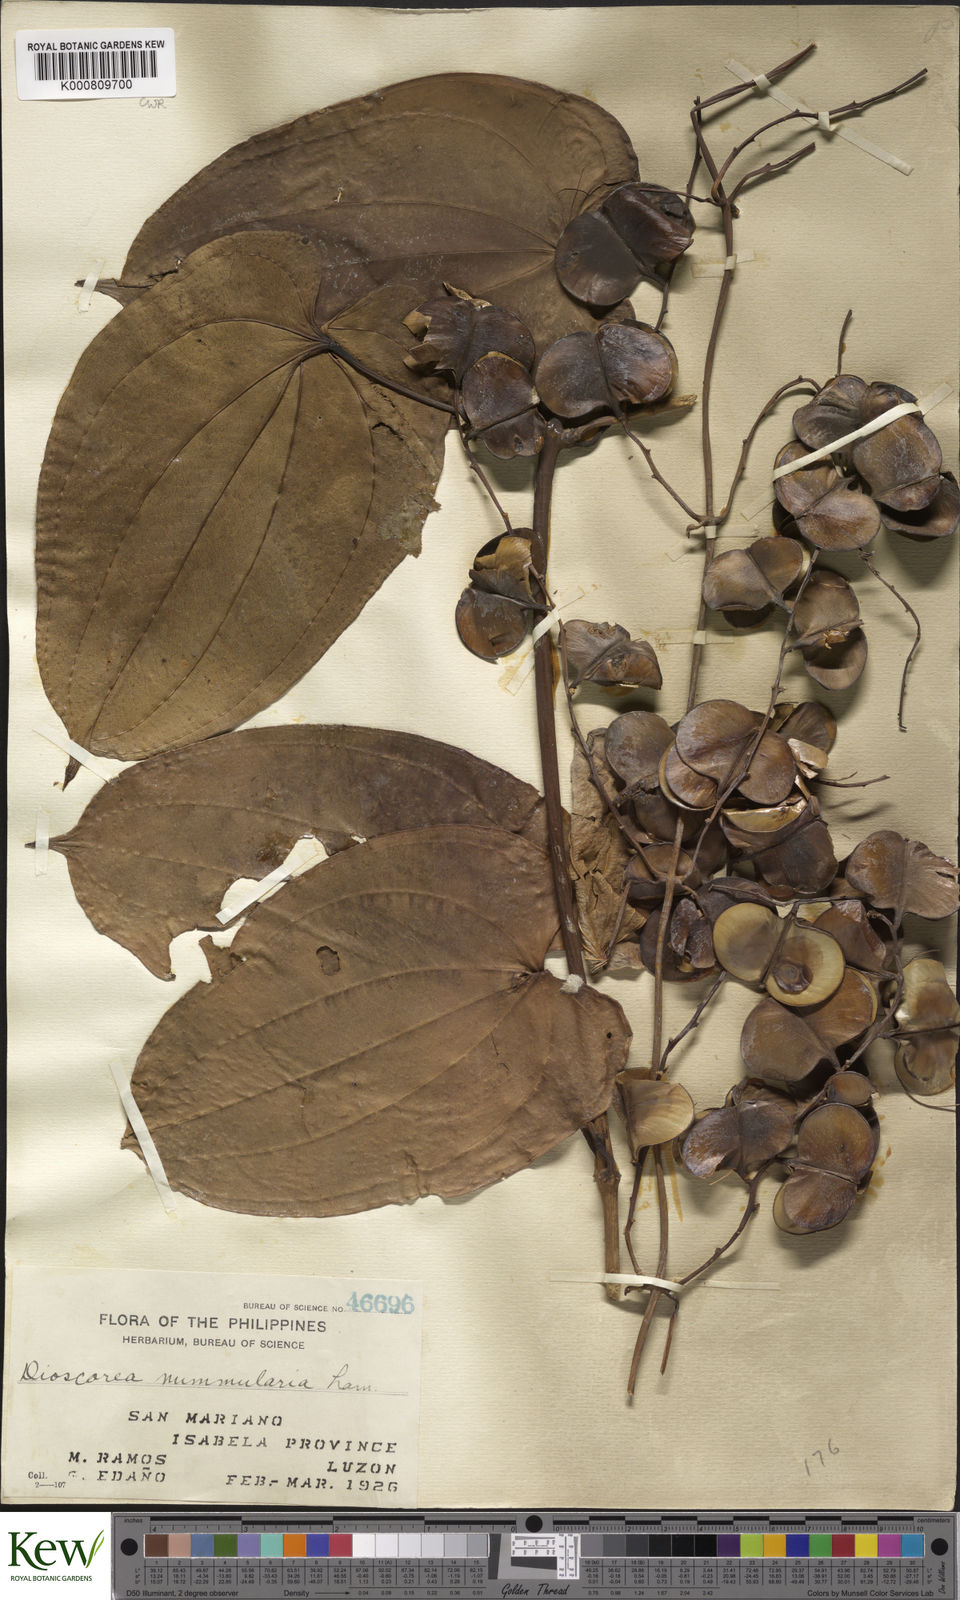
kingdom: Plantae
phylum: Tracheophyta
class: Liliopsida
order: Dioscoreales
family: Dioscoreaceae
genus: Dioscorea
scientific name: Dioscorea nummularia
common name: Pacific yam
